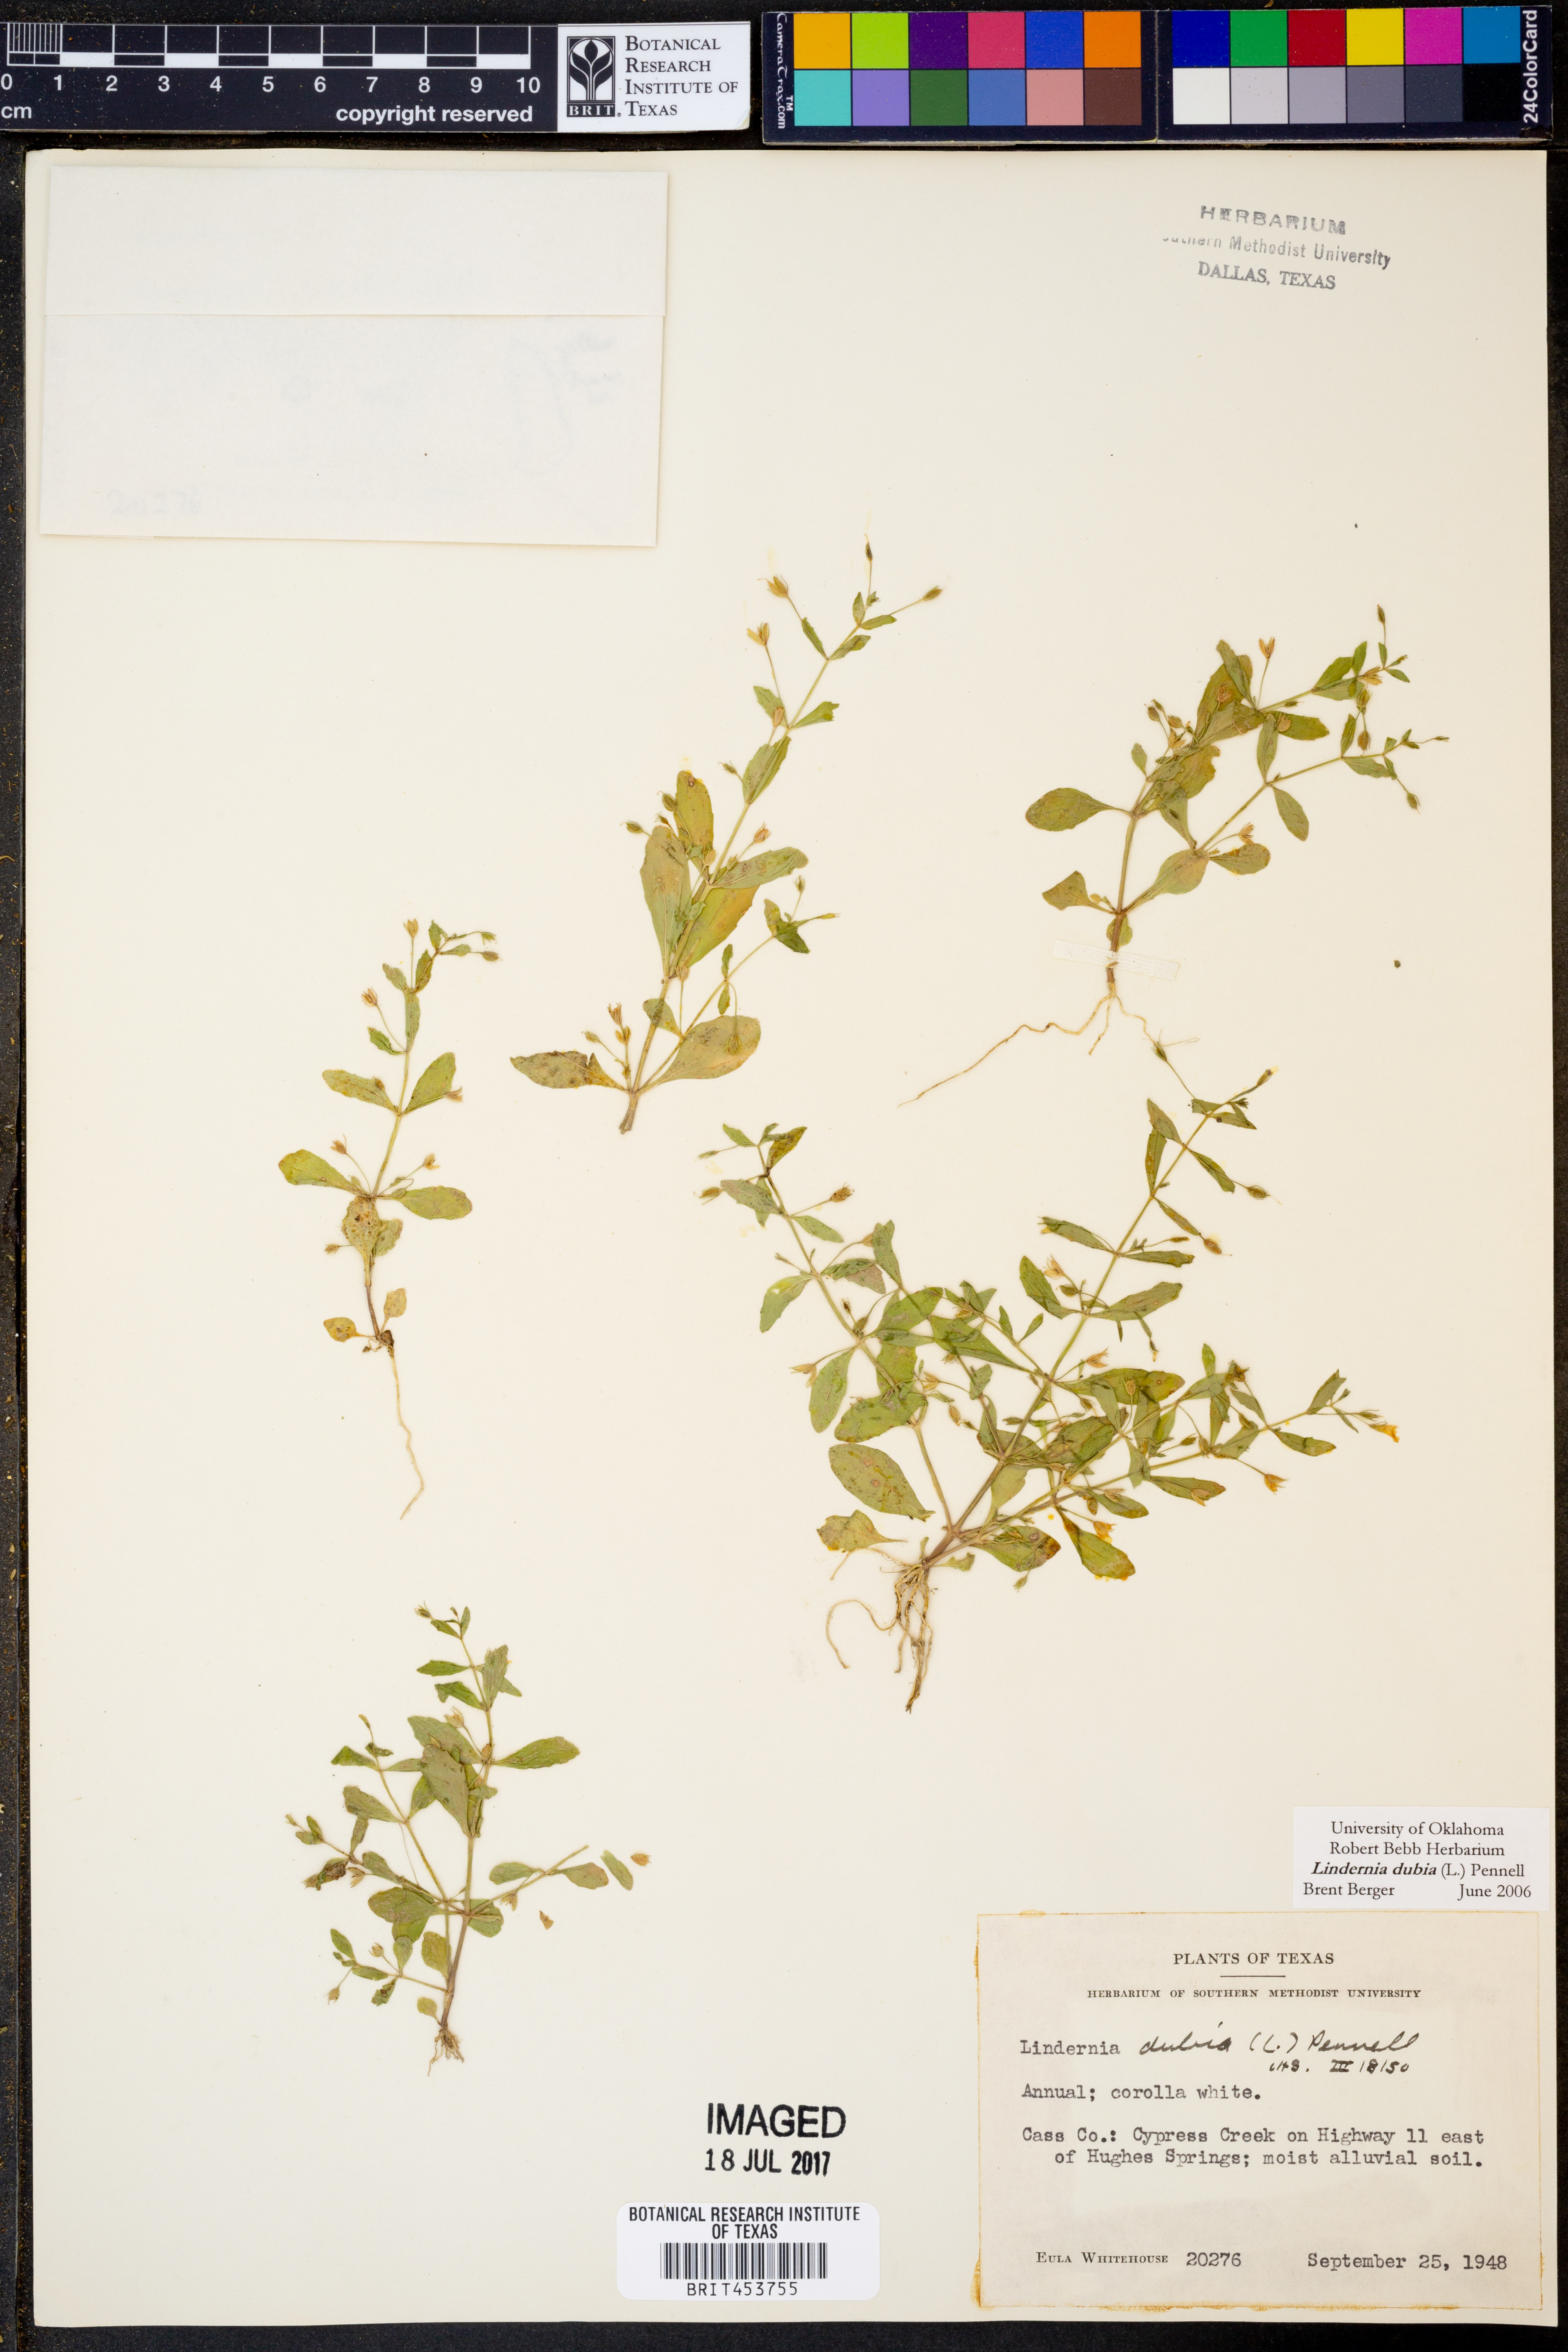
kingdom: Plantae
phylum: Tracheophyta
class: Magnoliopsida
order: Lamiales
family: Linderniaceae
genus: Lindernia
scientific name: Lindernia dubia
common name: Annual false pimpernel
